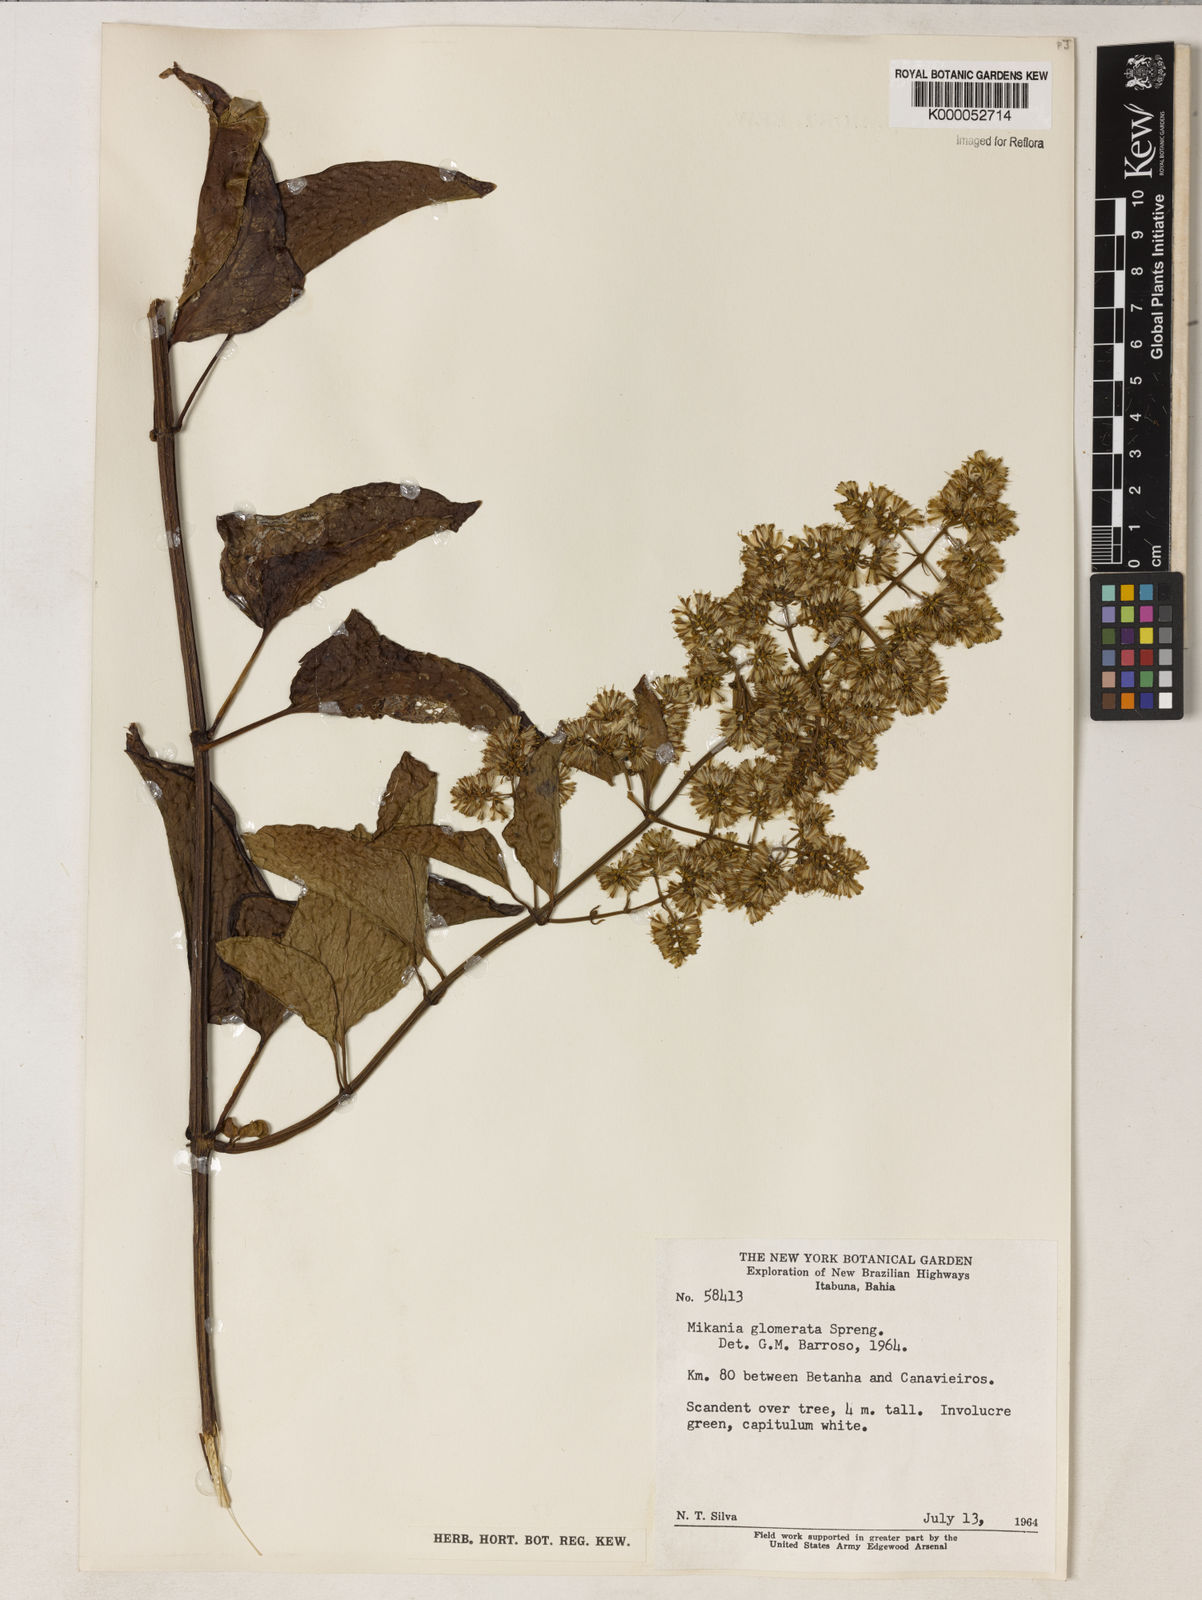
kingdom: Plantae
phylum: Tracheophyta
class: Magnoliopsida
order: Asterales
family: Asteraceae
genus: Mikania
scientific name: Mikania glomerata
